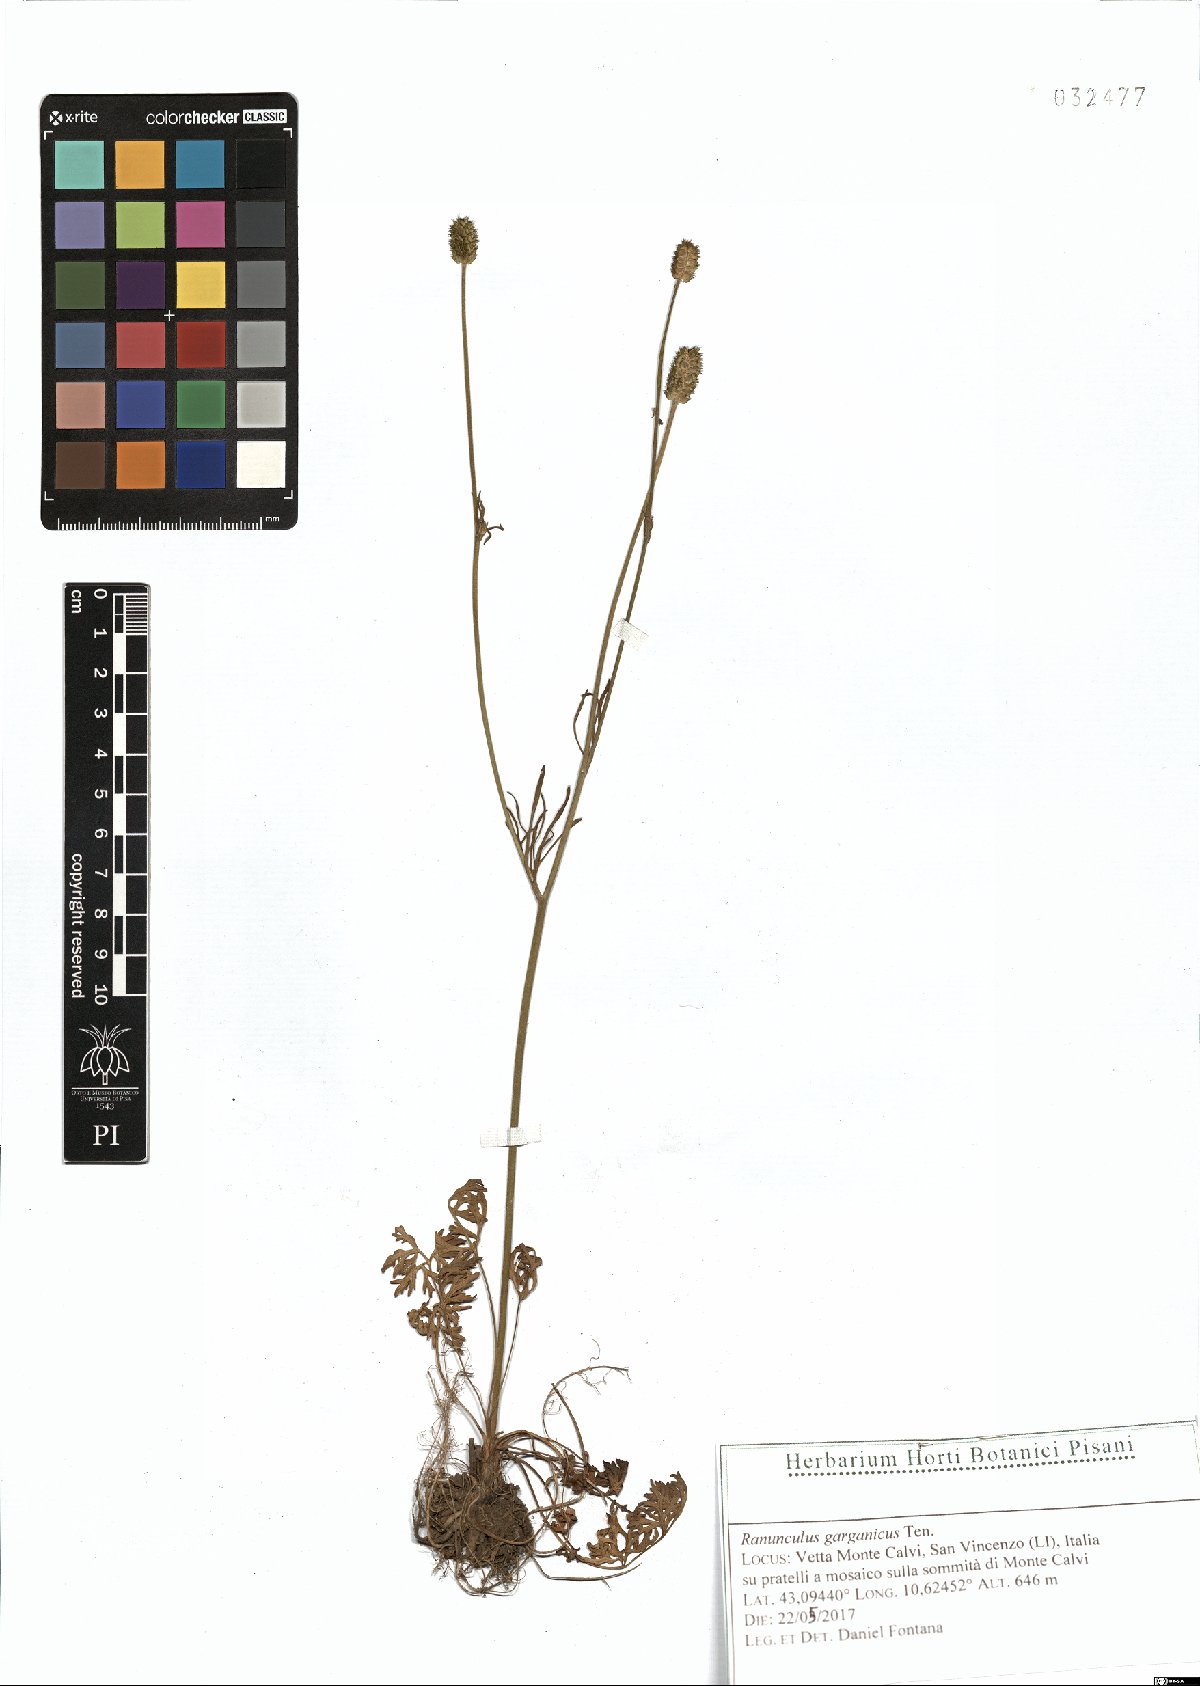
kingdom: Plantae
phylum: Tracheophyta
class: Magnoliopsida
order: Ranunculales
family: Ranunculaceae
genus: Ranunculus
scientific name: Ranunculus garganicus
